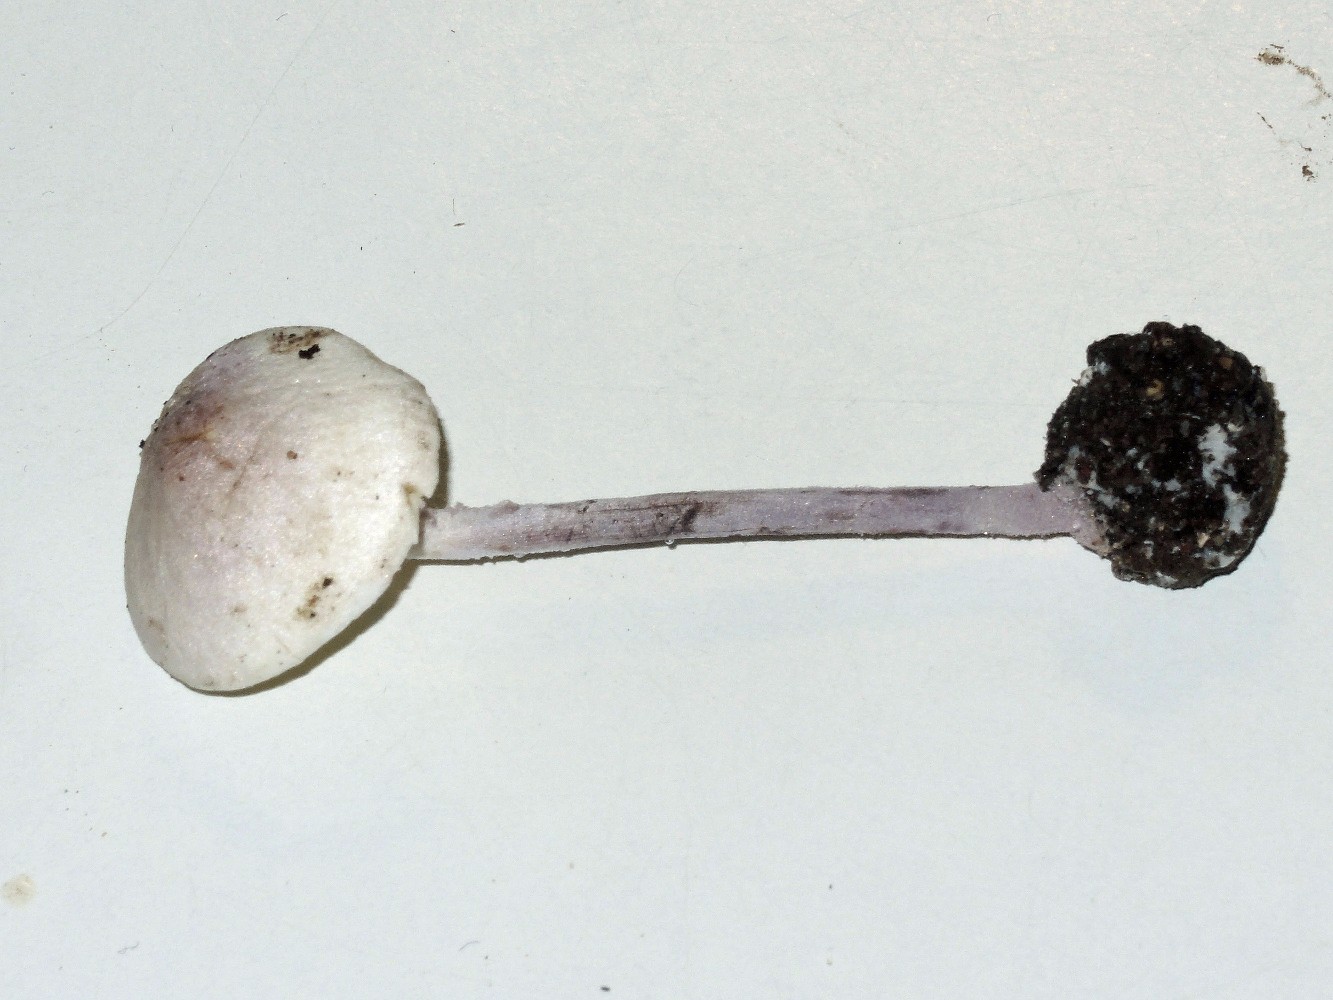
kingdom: Fungi
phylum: Basidiomycota
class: Agaricomycetes
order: Agaricales
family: Agaricaceae
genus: Cystolepiota
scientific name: Cystolepiota bucknallii
